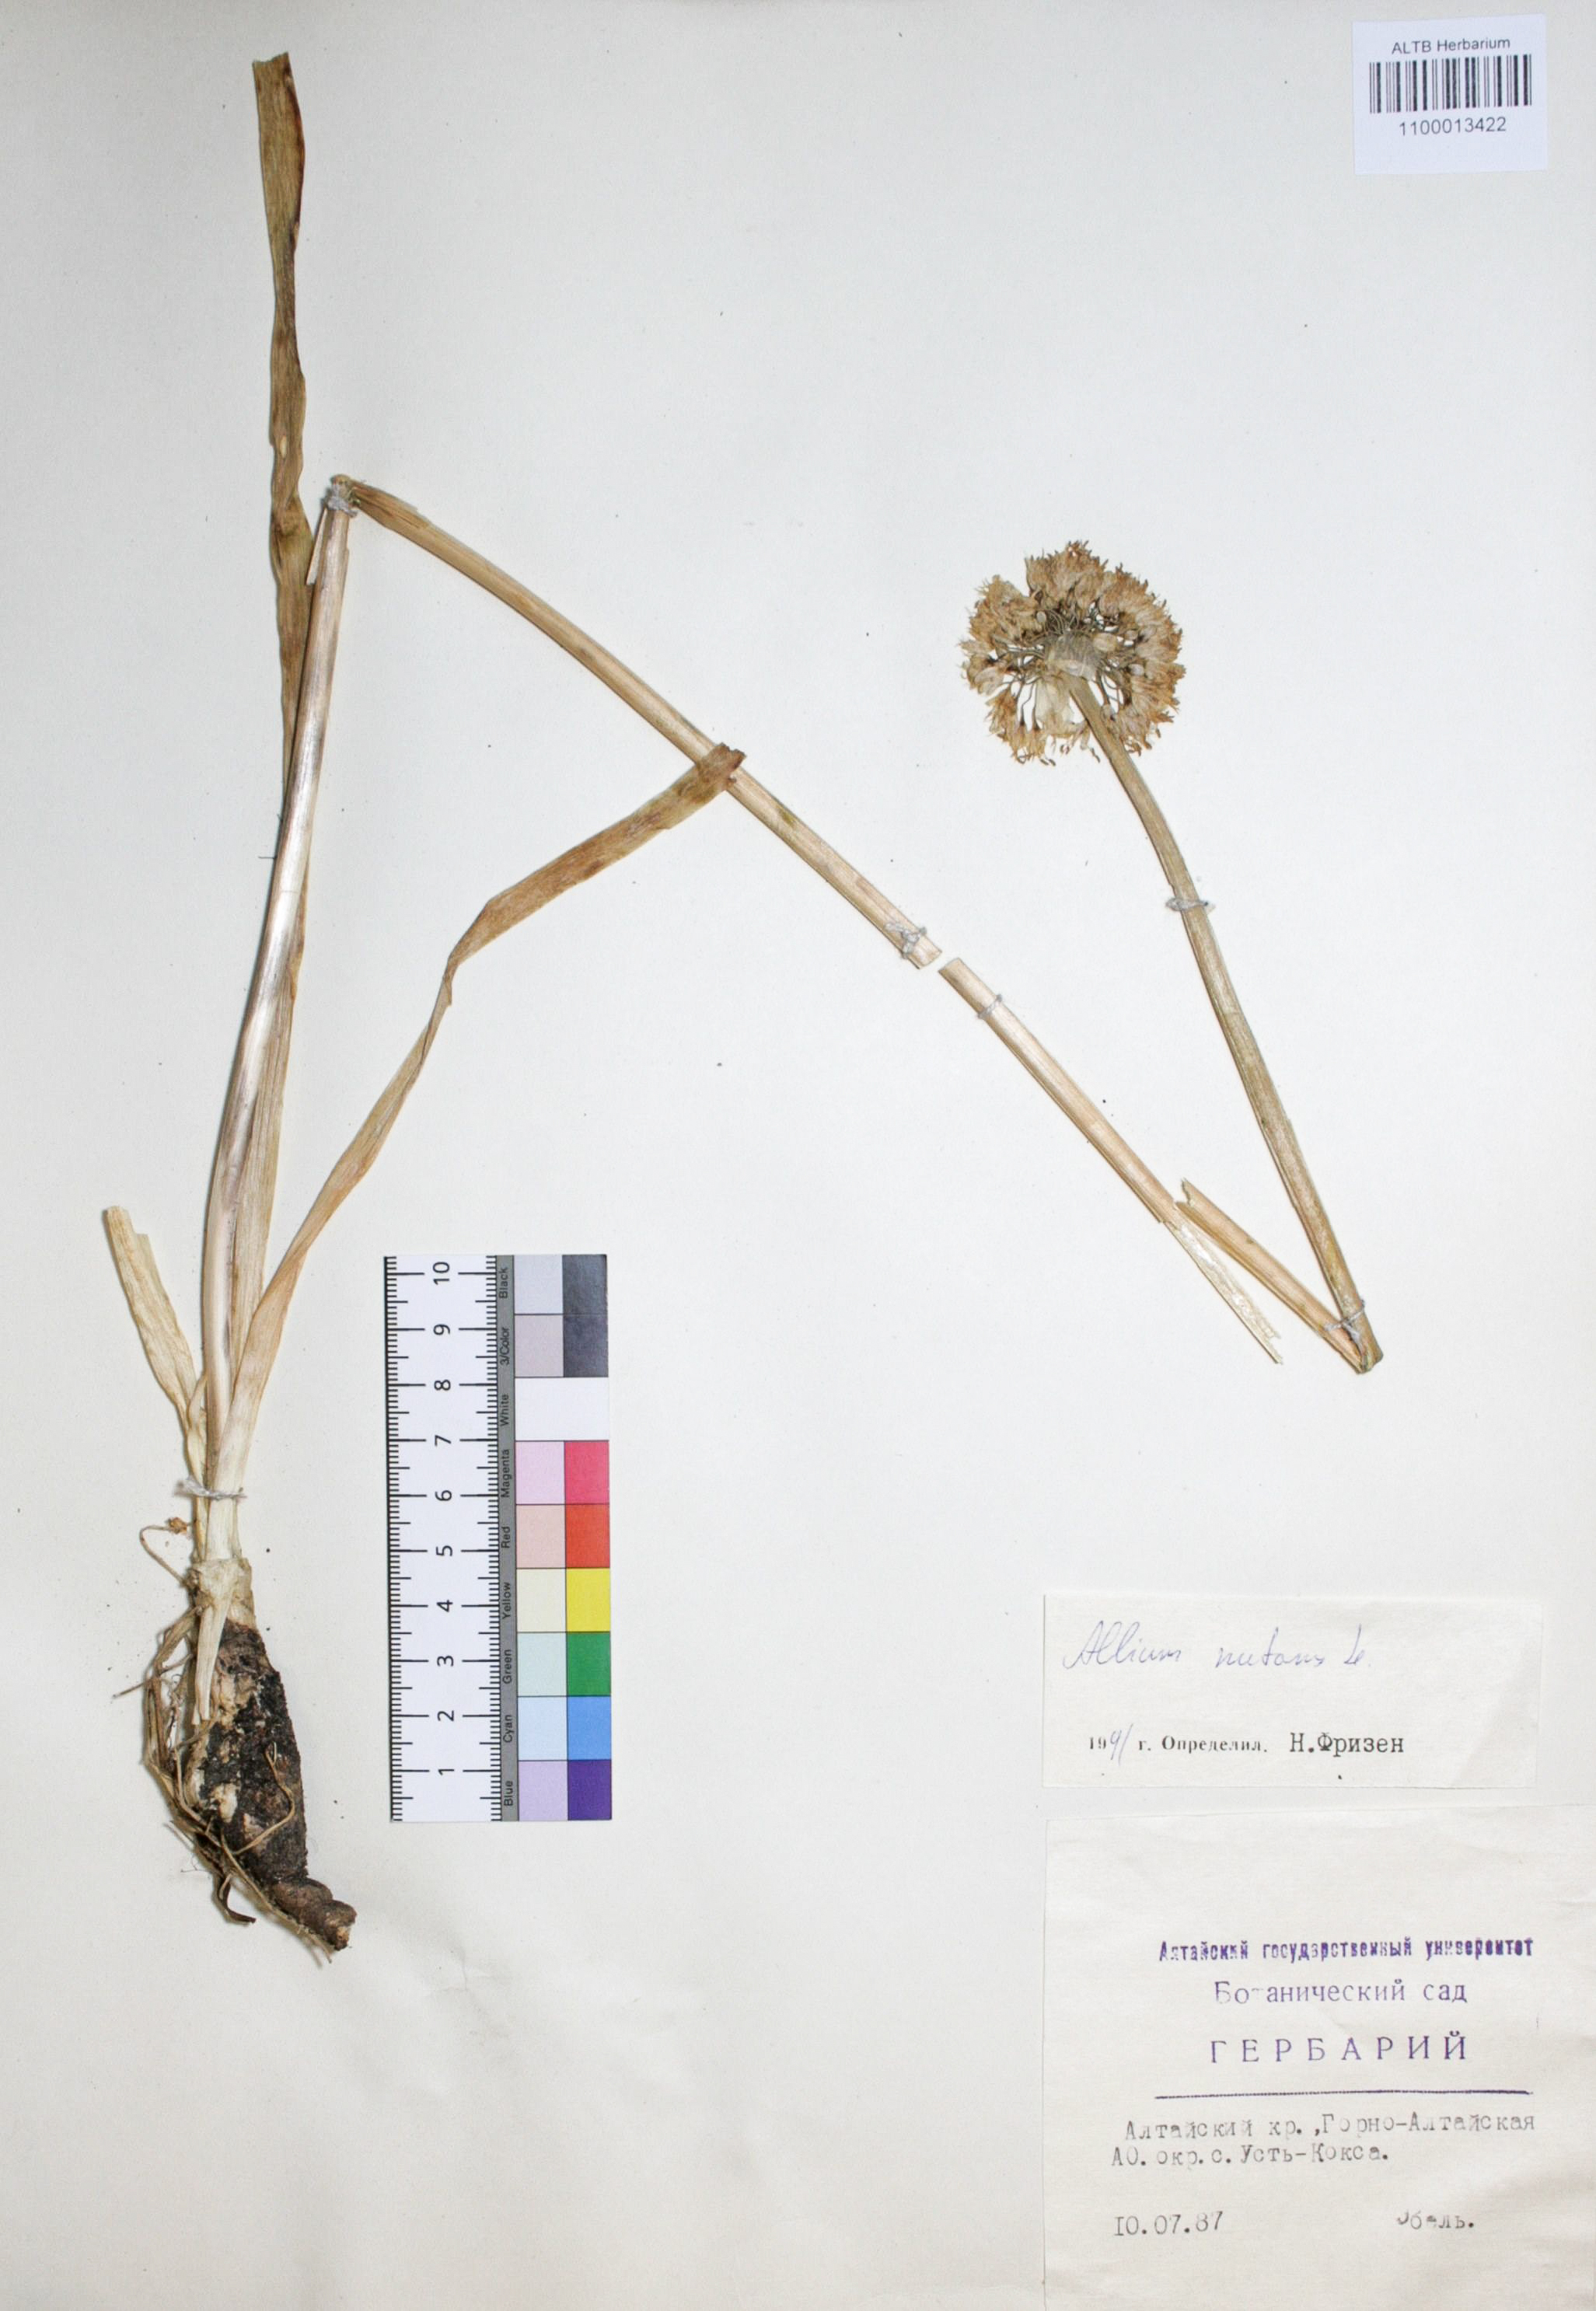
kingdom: Plantae
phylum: Tracheophyta
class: Liliopsida
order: Asparagales
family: Amaryllidaceae
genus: Allium
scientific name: Allium nutans
